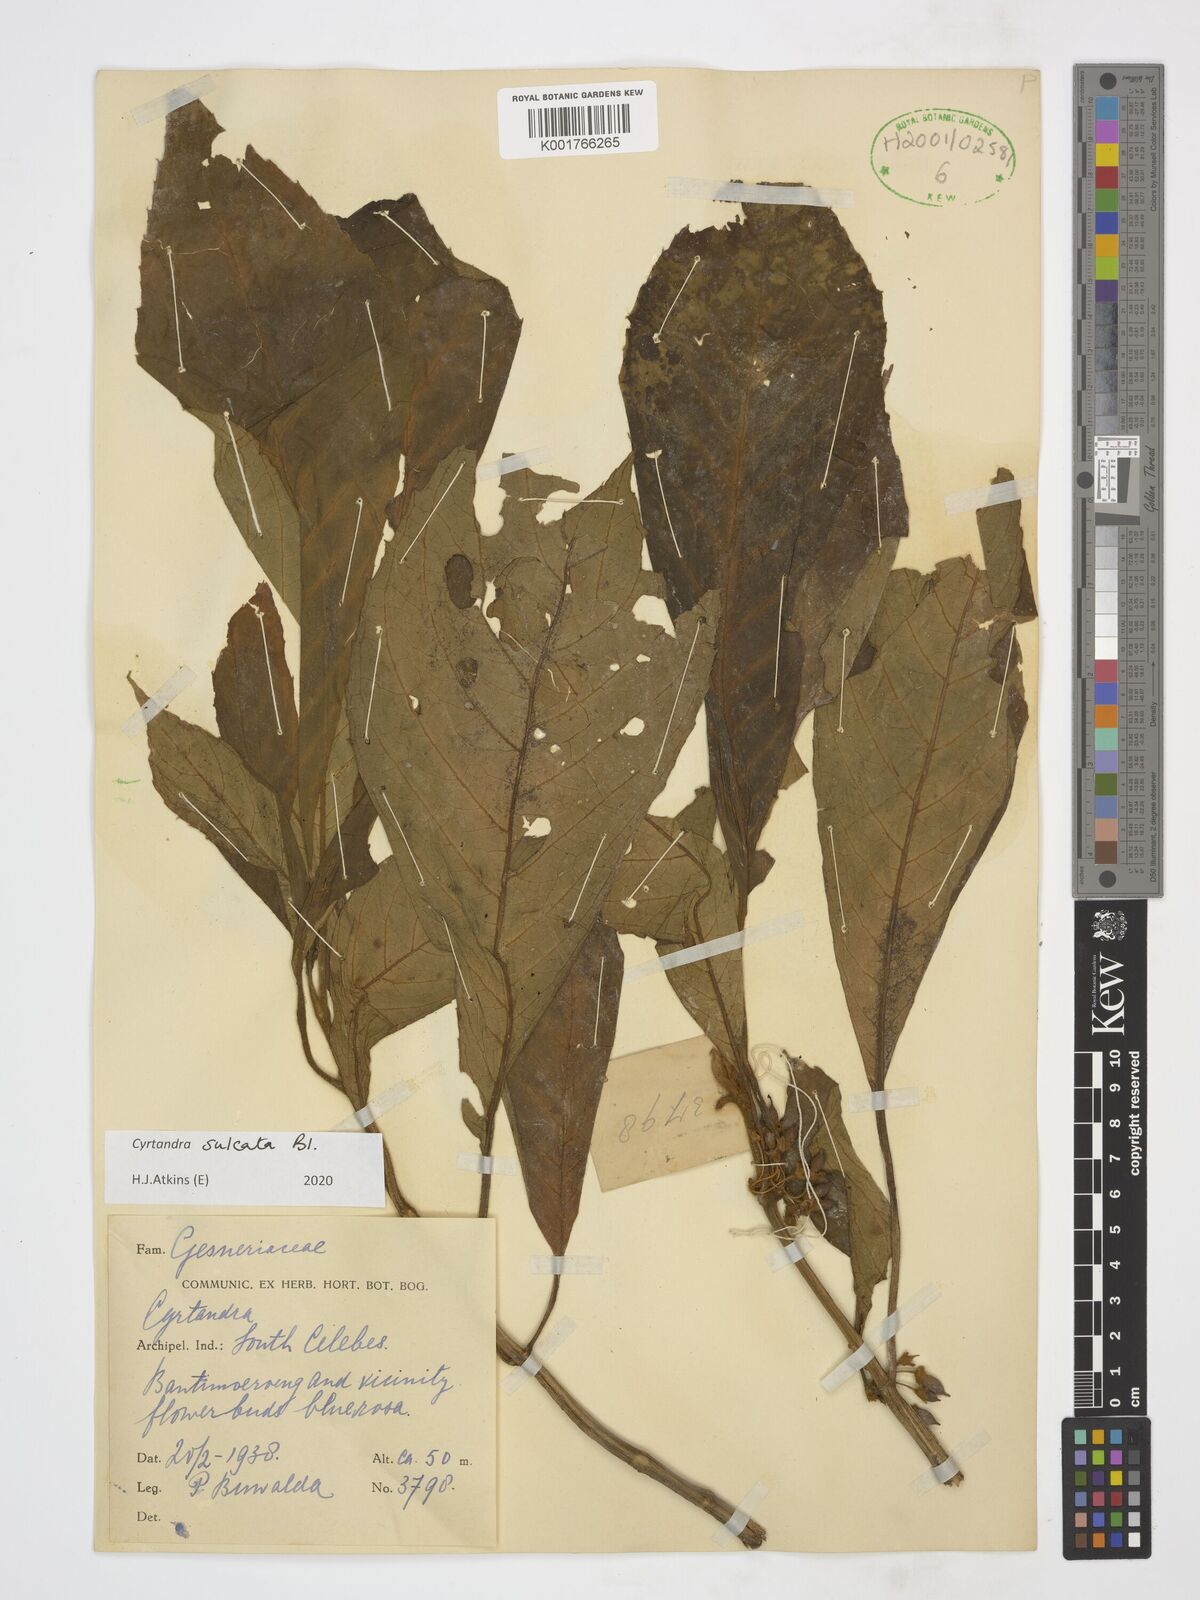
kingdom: Plantae
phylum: Tracheophyta
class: Magnoliopsida
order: Lamiales
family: Gesneriaceae
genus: Cyrtandra
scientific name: Cyrtandra sulcata
